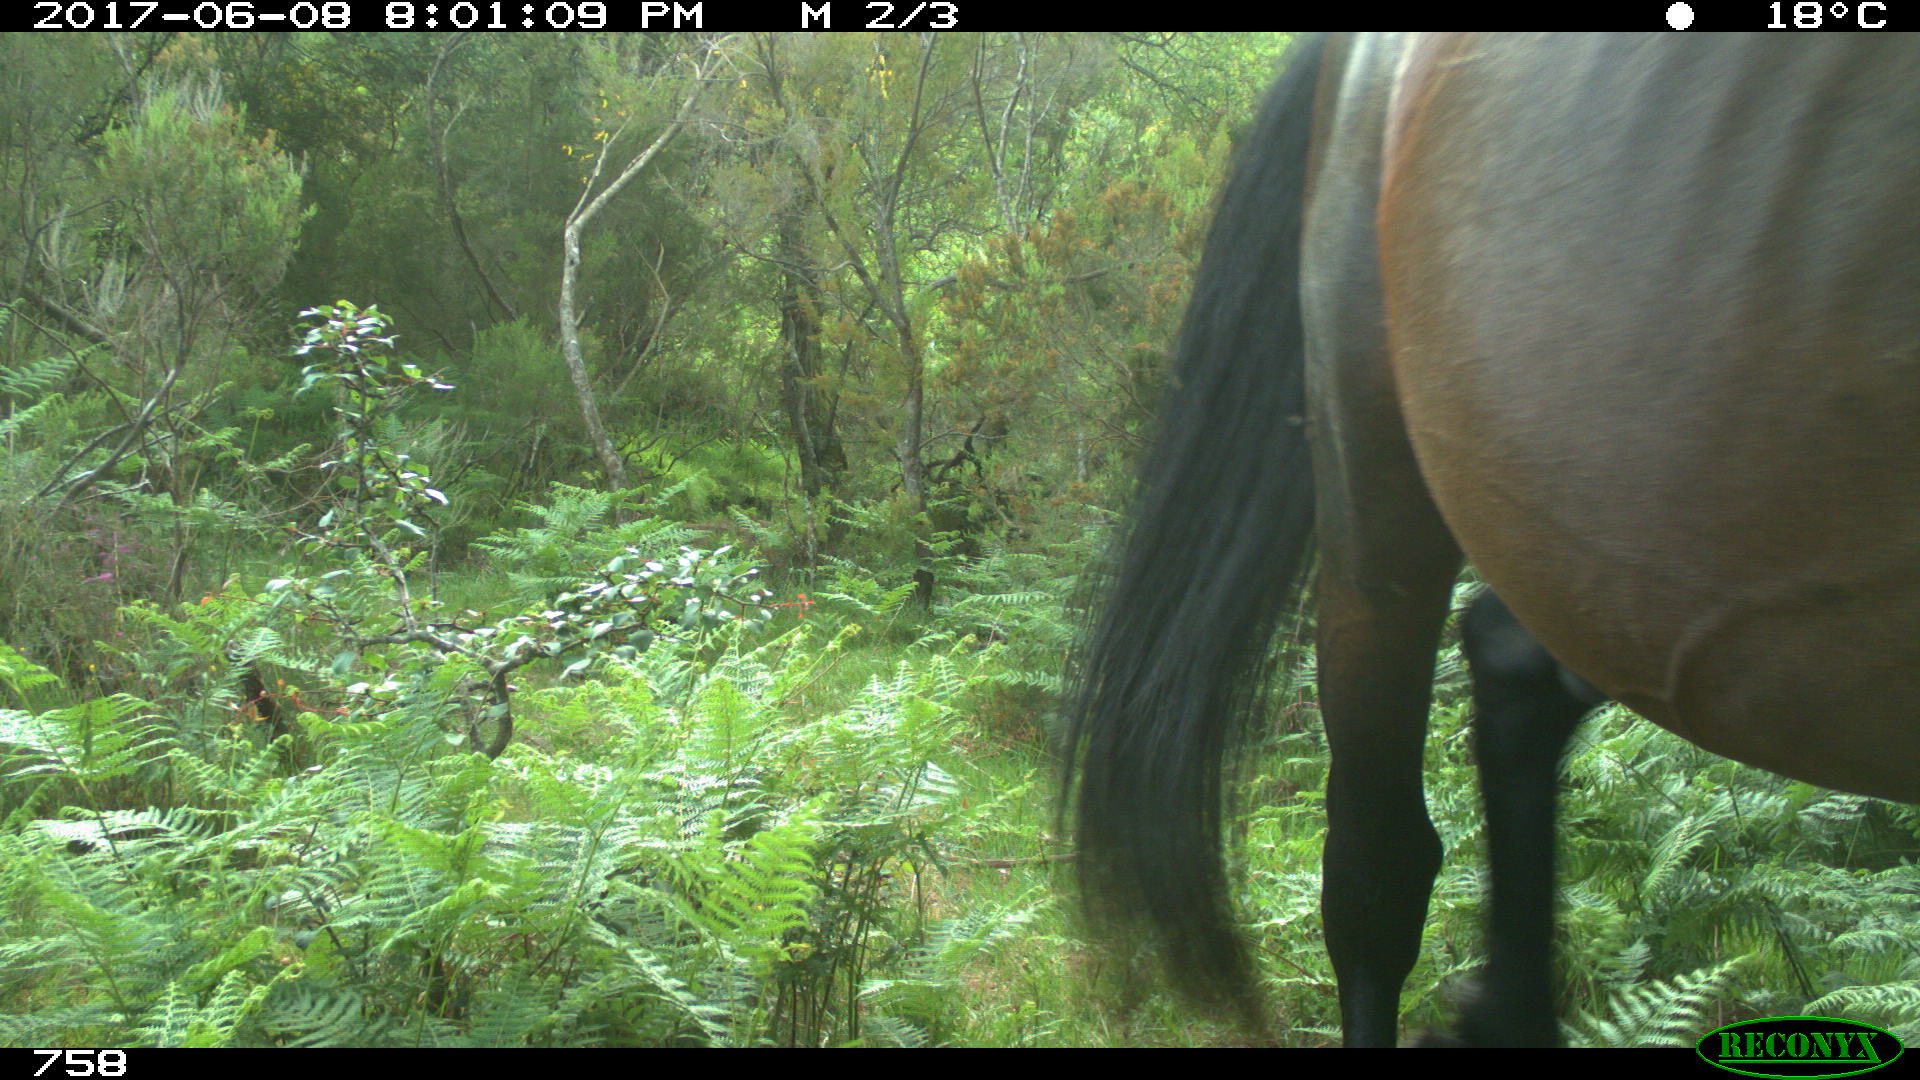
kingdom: Animalia
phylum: Chordata
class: Mammalia
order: Perissodactyla
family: Equidae
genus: Equus
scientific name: Equus caballus
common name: Horse
